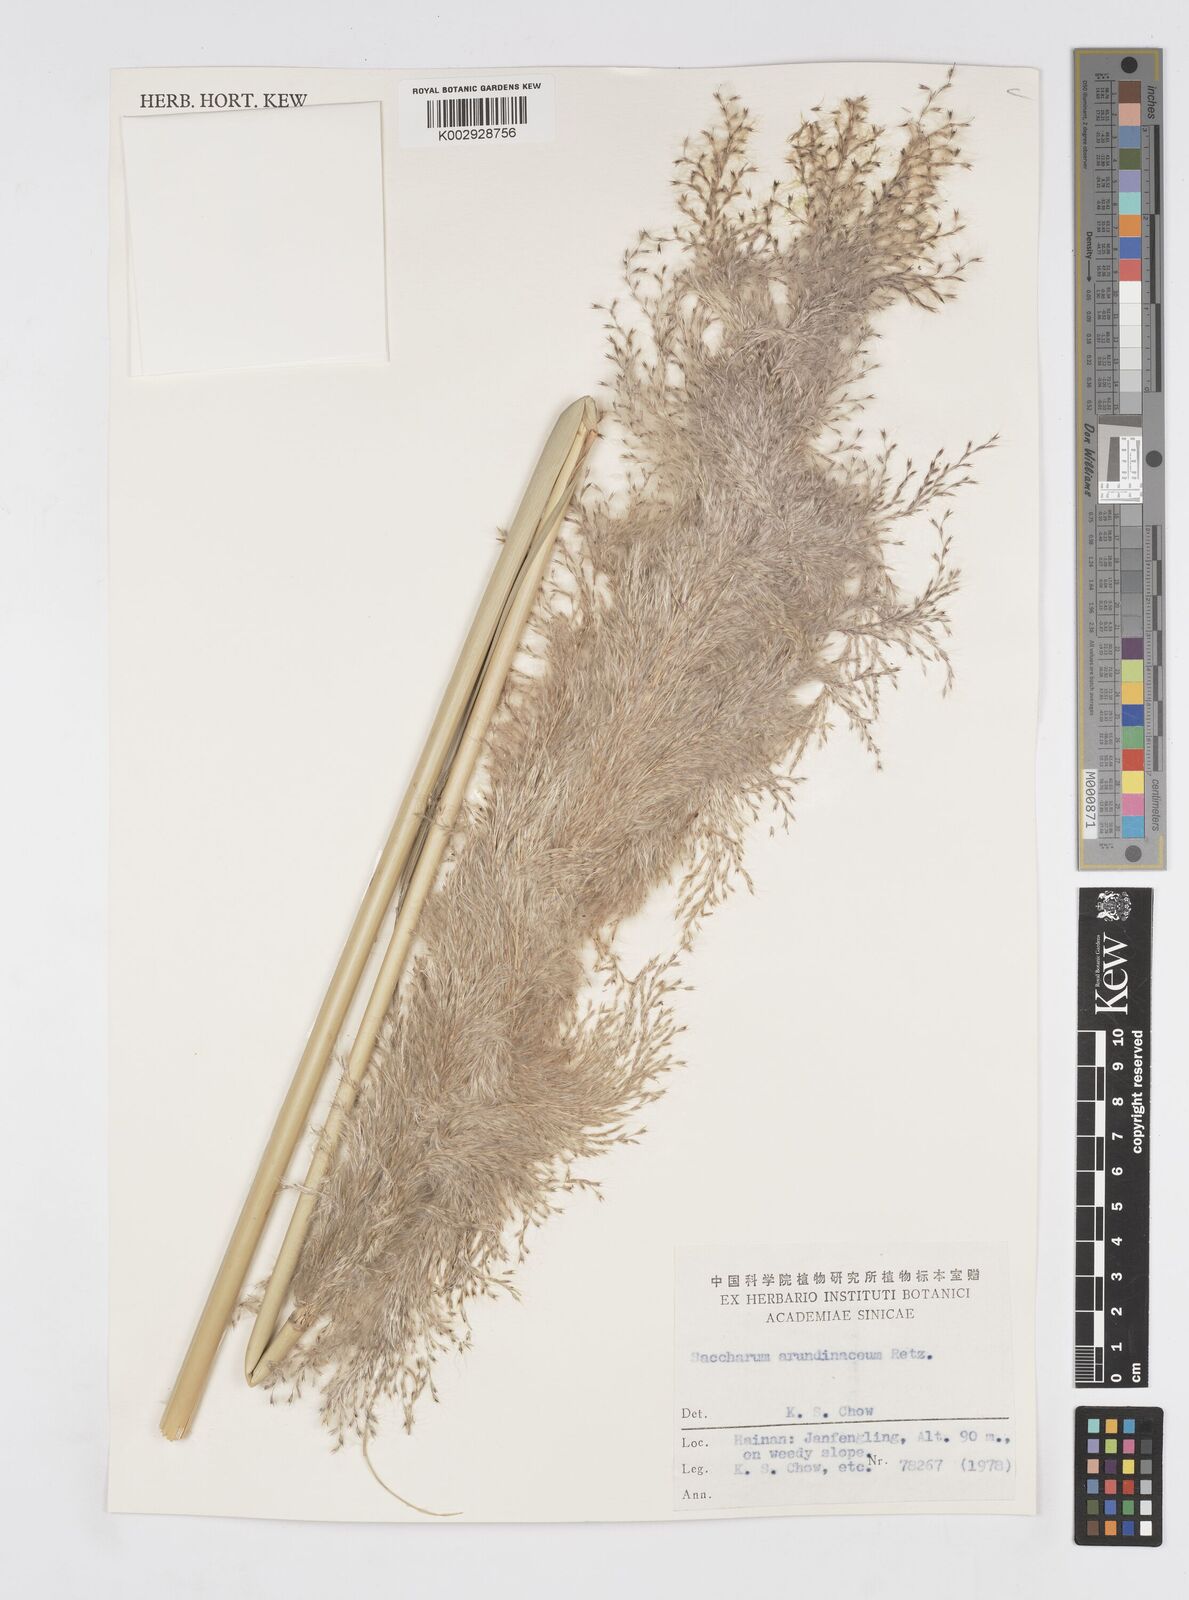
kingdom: Plantae
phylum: Tracheophyta
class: Liliopsida
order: Poales
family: Poaceae
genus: Tripidium
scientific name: Tripidium arundinaceum
